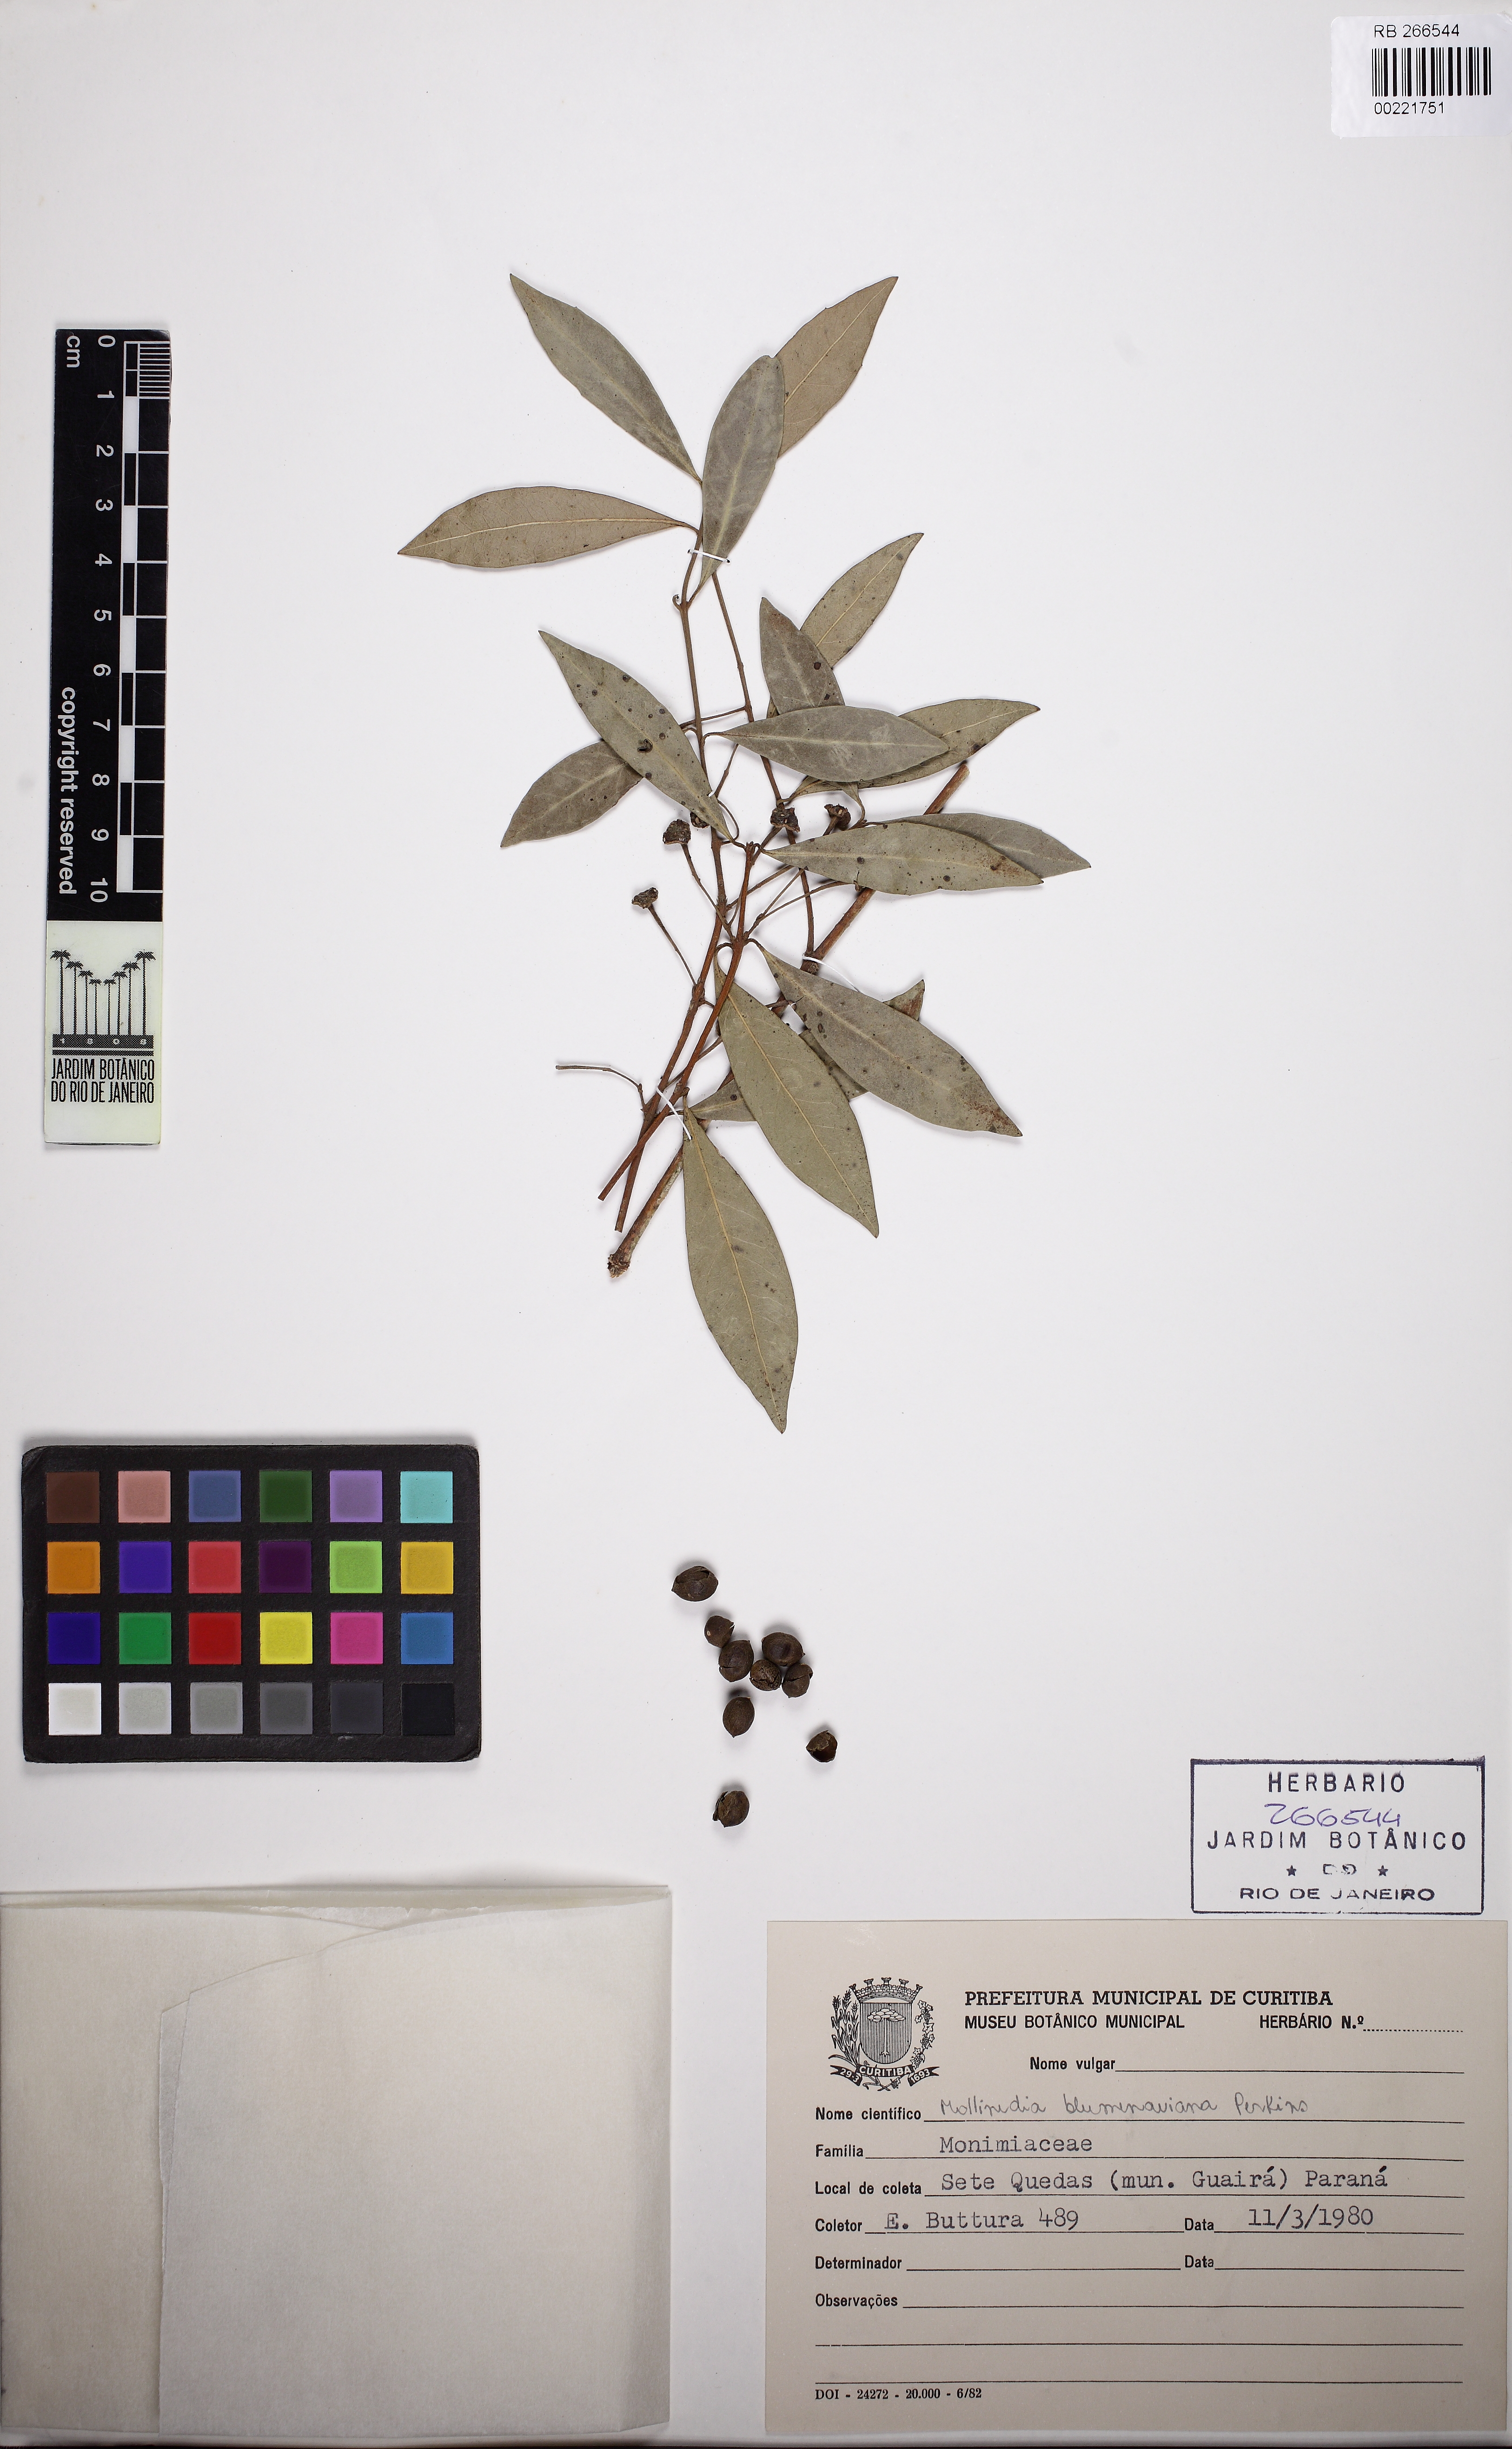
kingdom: Plantae
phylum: Tracheophyta
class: Magnoliopsida
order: Laurales
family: Monimiaceae
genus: Mollinedia
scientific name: Mollinedia pfitzeriana
